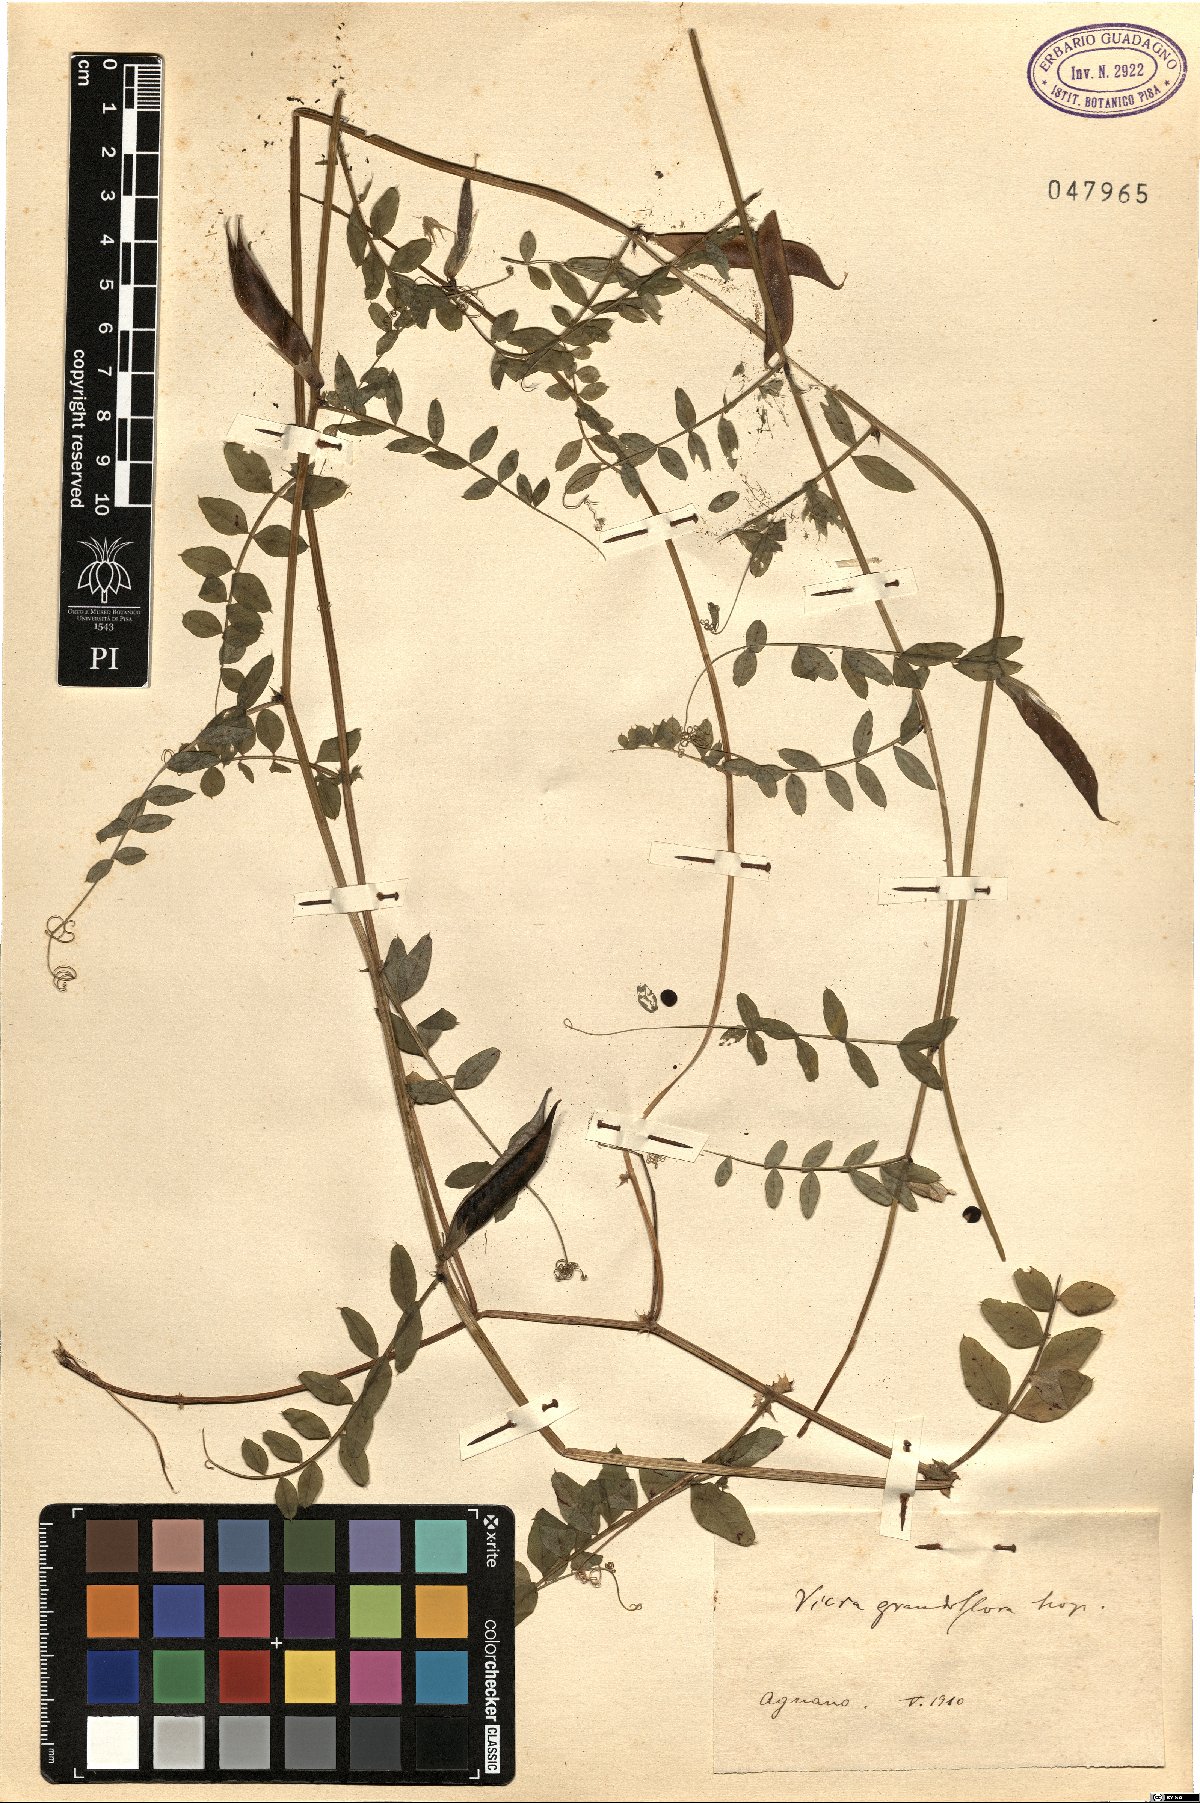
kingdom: Plantae
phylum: Tracheophyta
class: Magnoliopsida
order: Fabales
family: Fabaceae
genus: Vicia
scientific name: Vicia grandiflora
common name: Large yellow vetch
